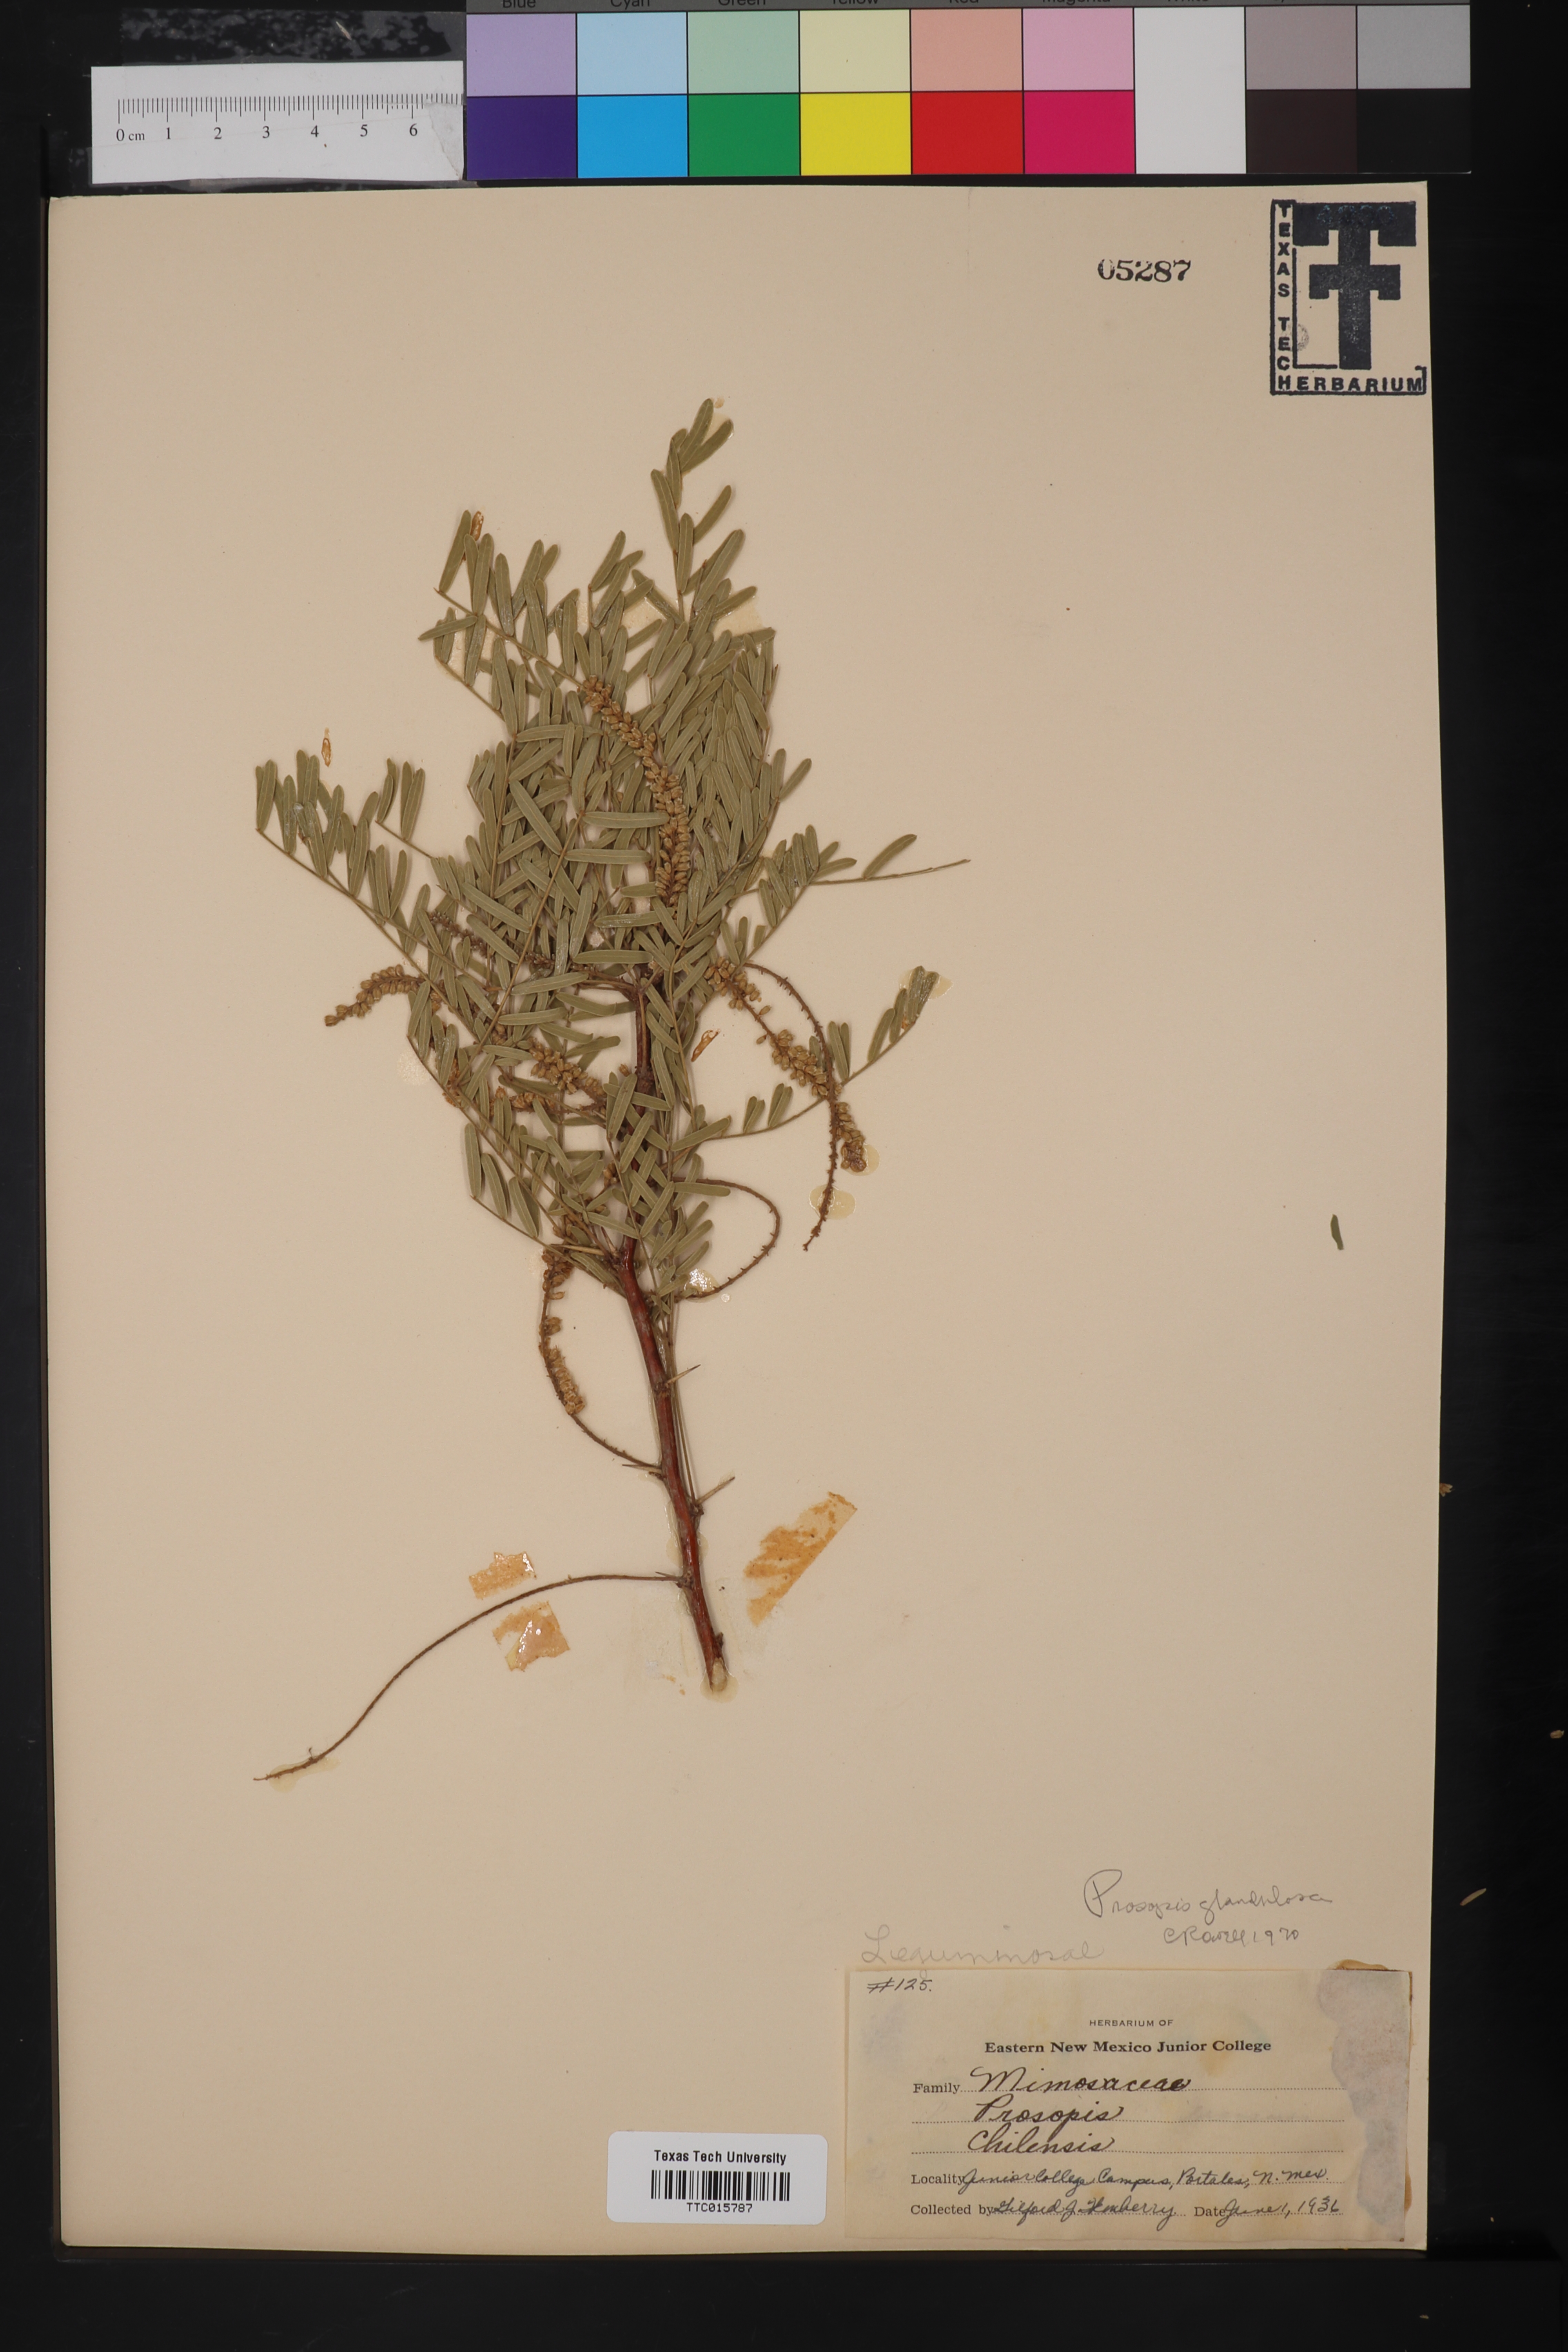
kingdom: Plantae
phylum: Tracheophyta
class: Magnoliopsida
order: Fabales
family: Fabaceae
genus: Prosopis
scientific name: Prosopis glandulosa
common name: Honey mesquite
